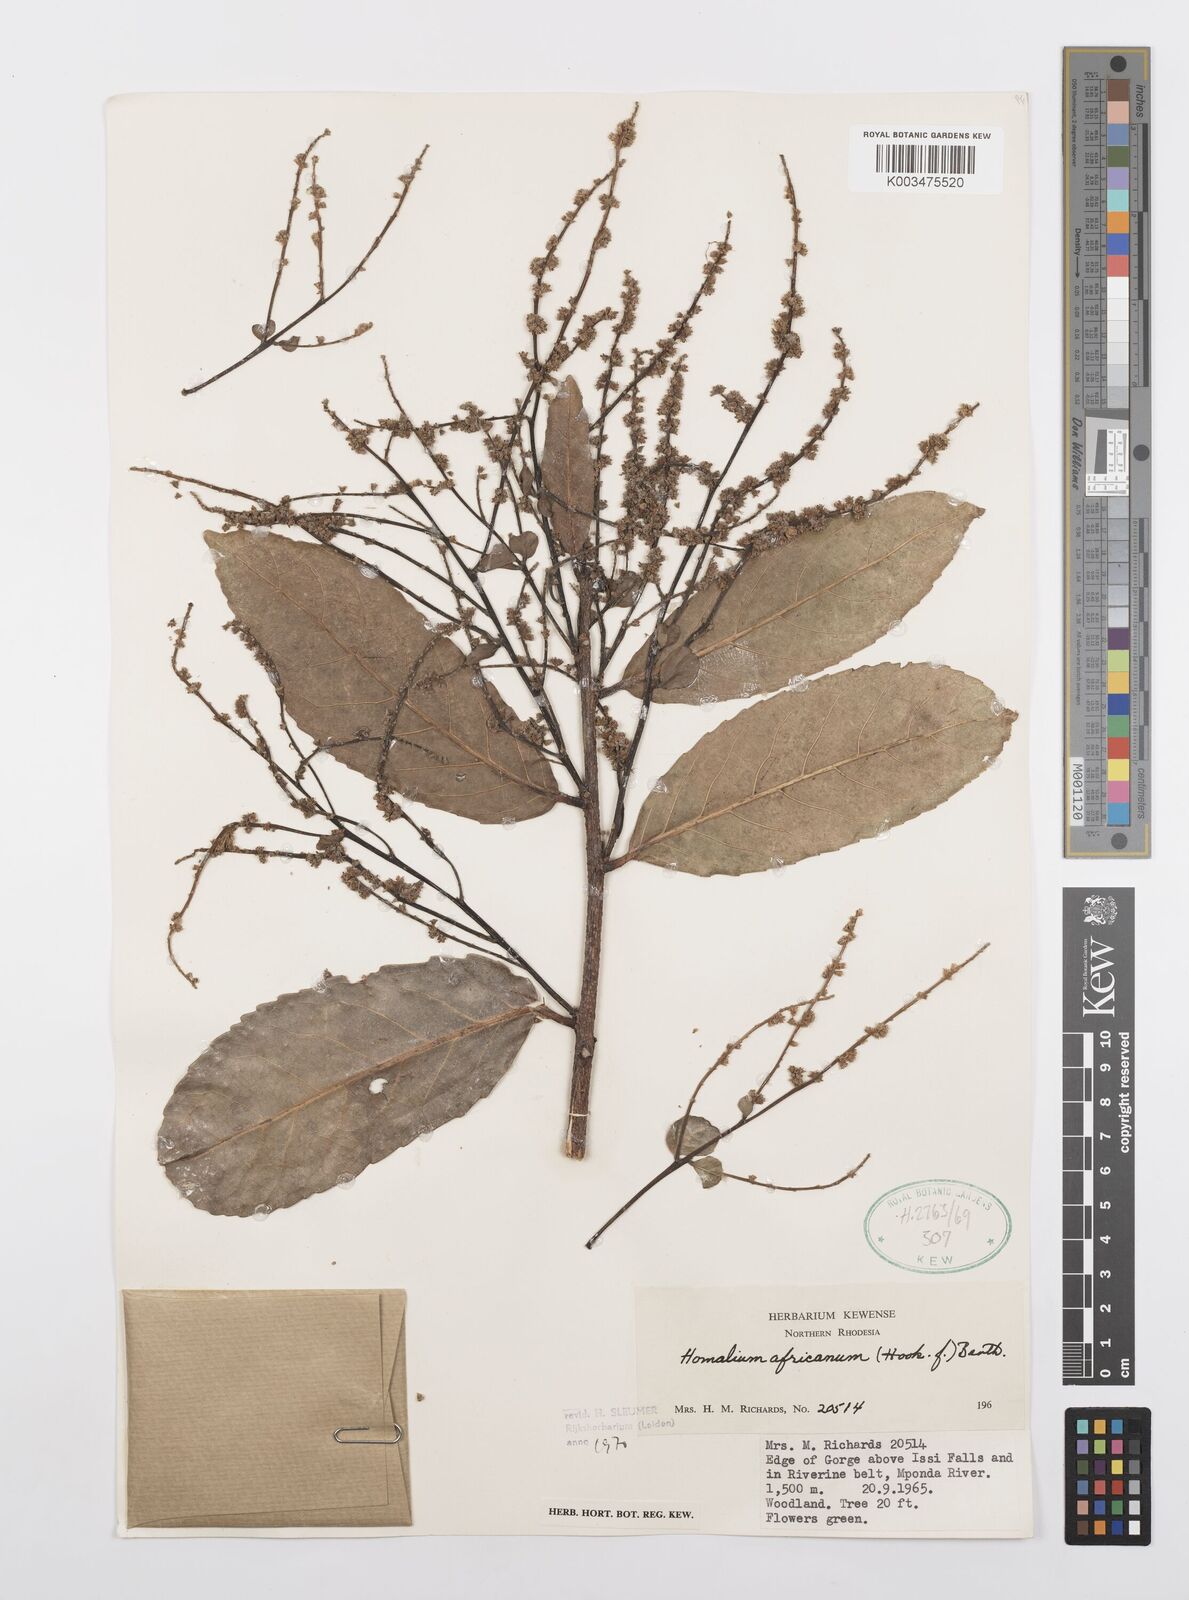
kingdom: Plantae
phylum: Tracheophyta
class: Magnoliopsida
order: Malpighiales
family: Salicaceae
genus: Homalium
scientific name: Homalium africanum
